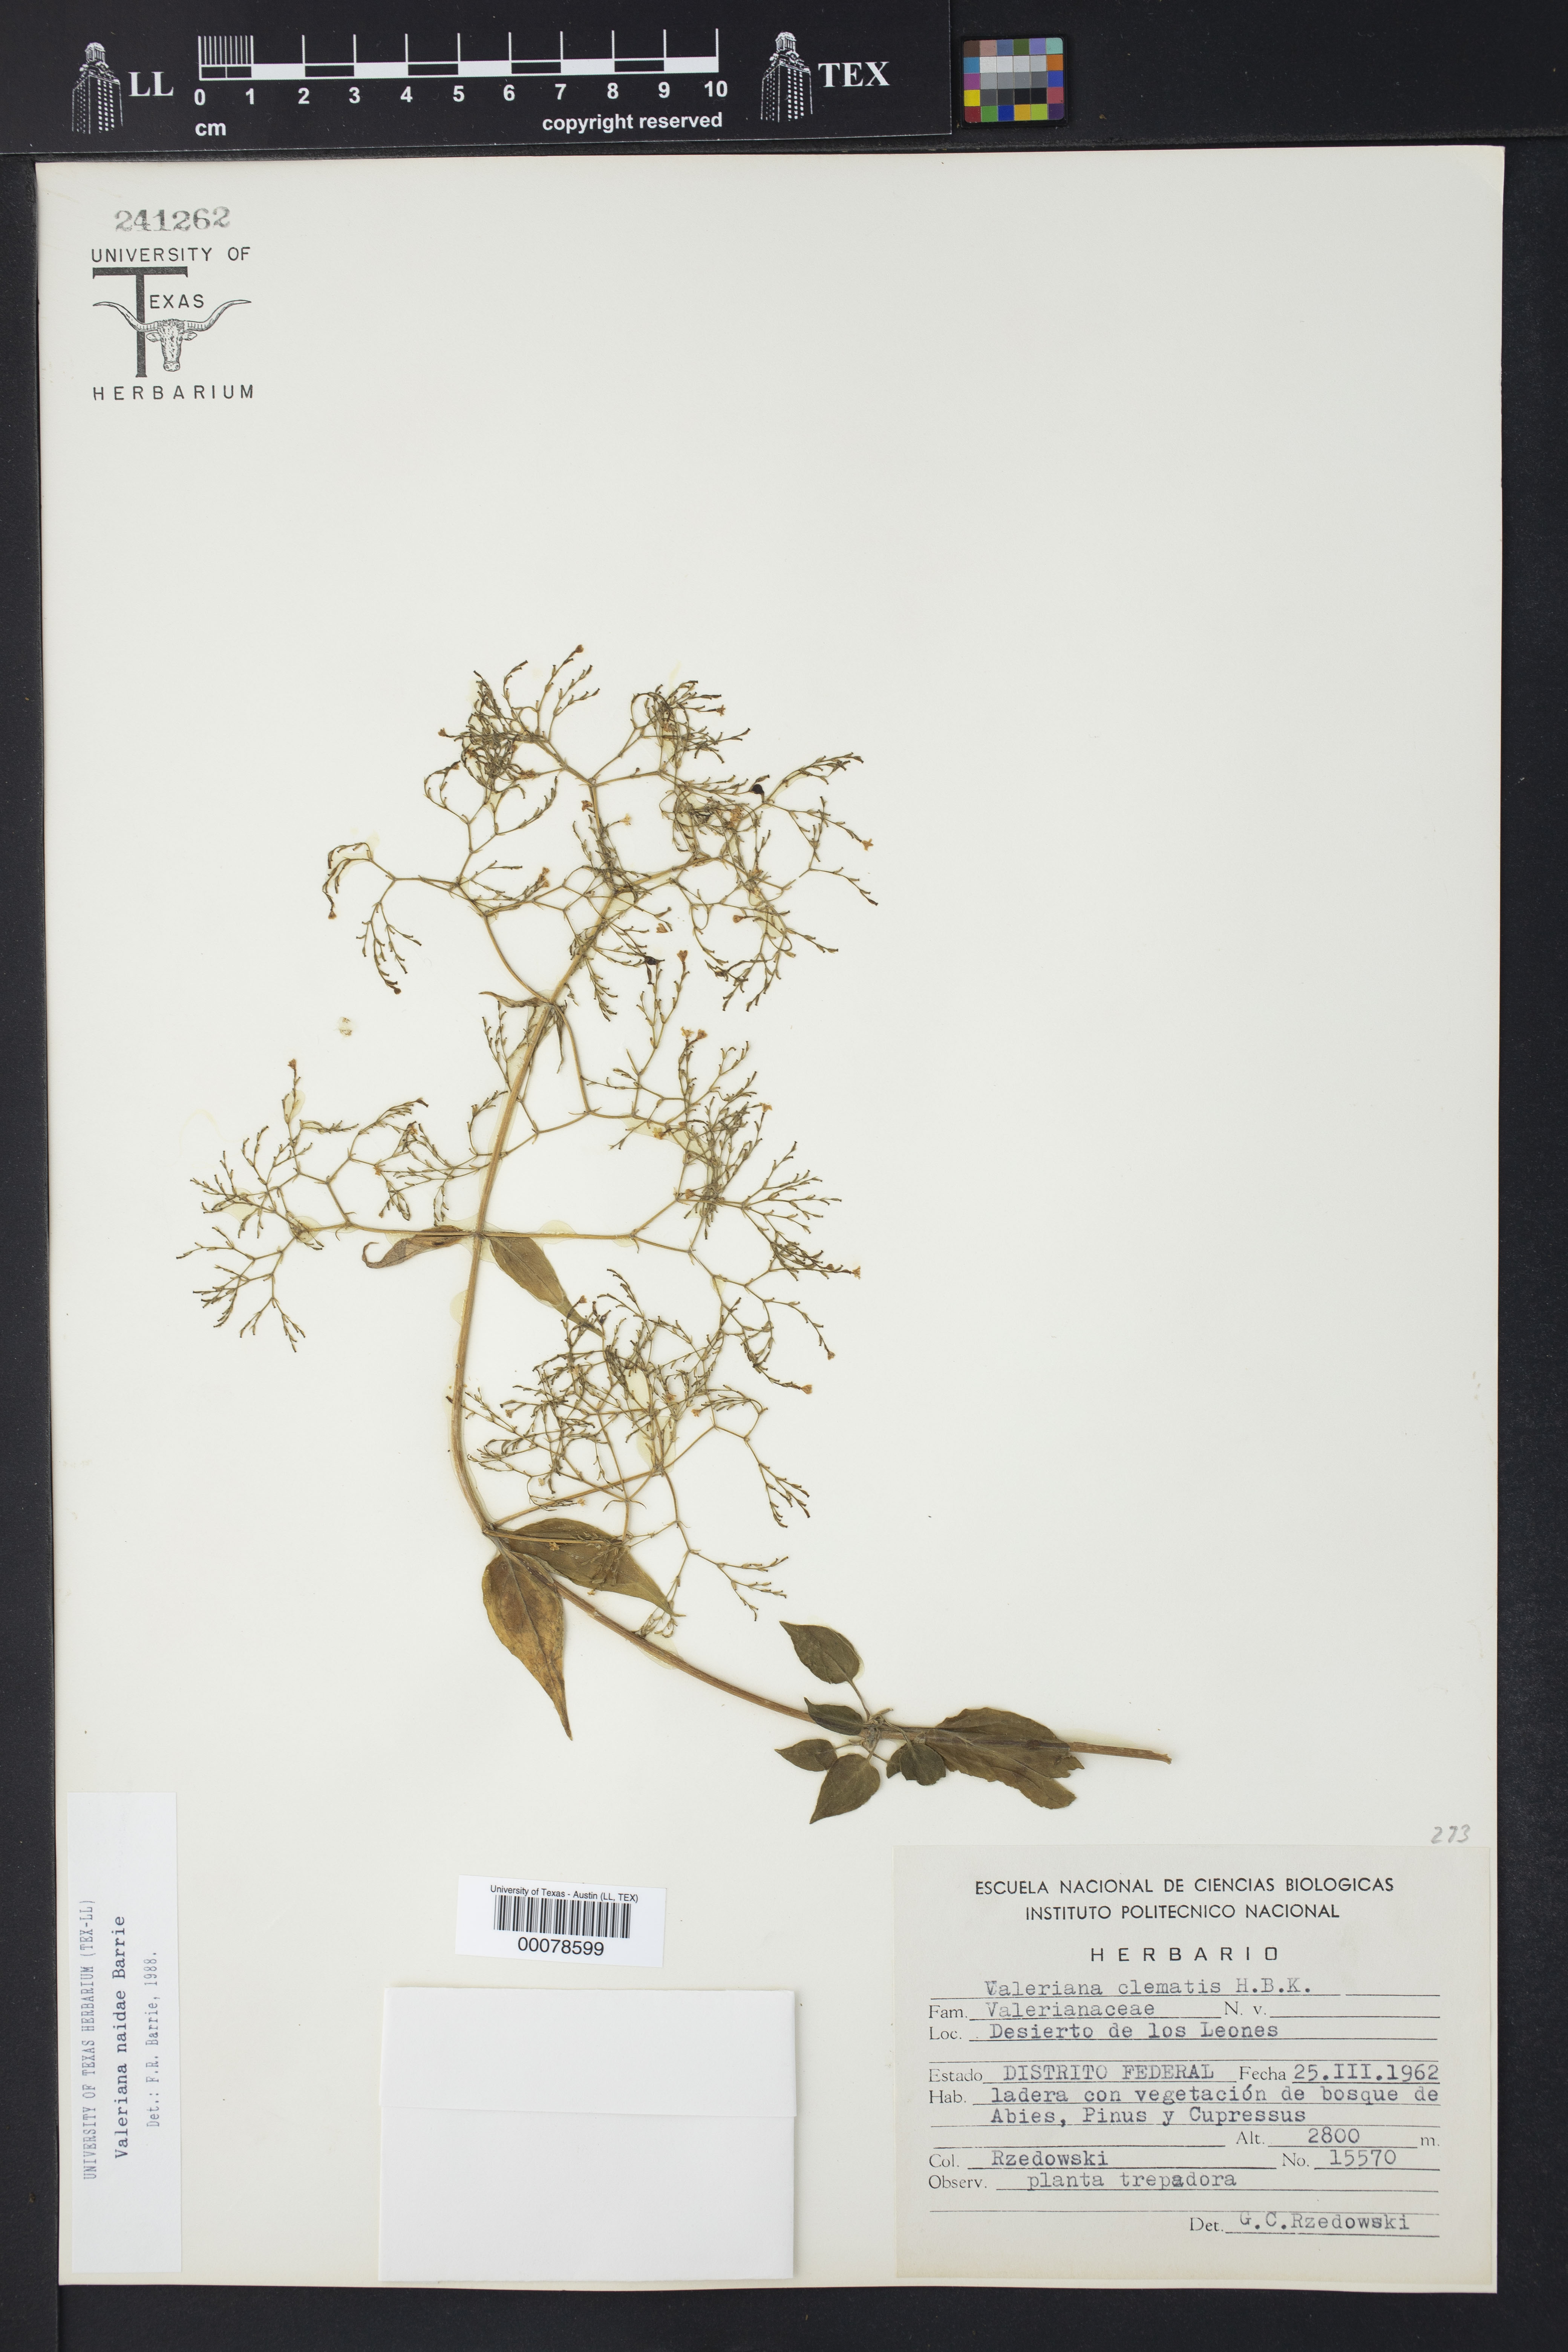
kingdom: Plantae
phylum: Tracheophyta
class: Magnoliopsida
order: Dipsacales
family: Caprifoliaceae
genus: Valeriana
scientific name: Valeriana naidae
